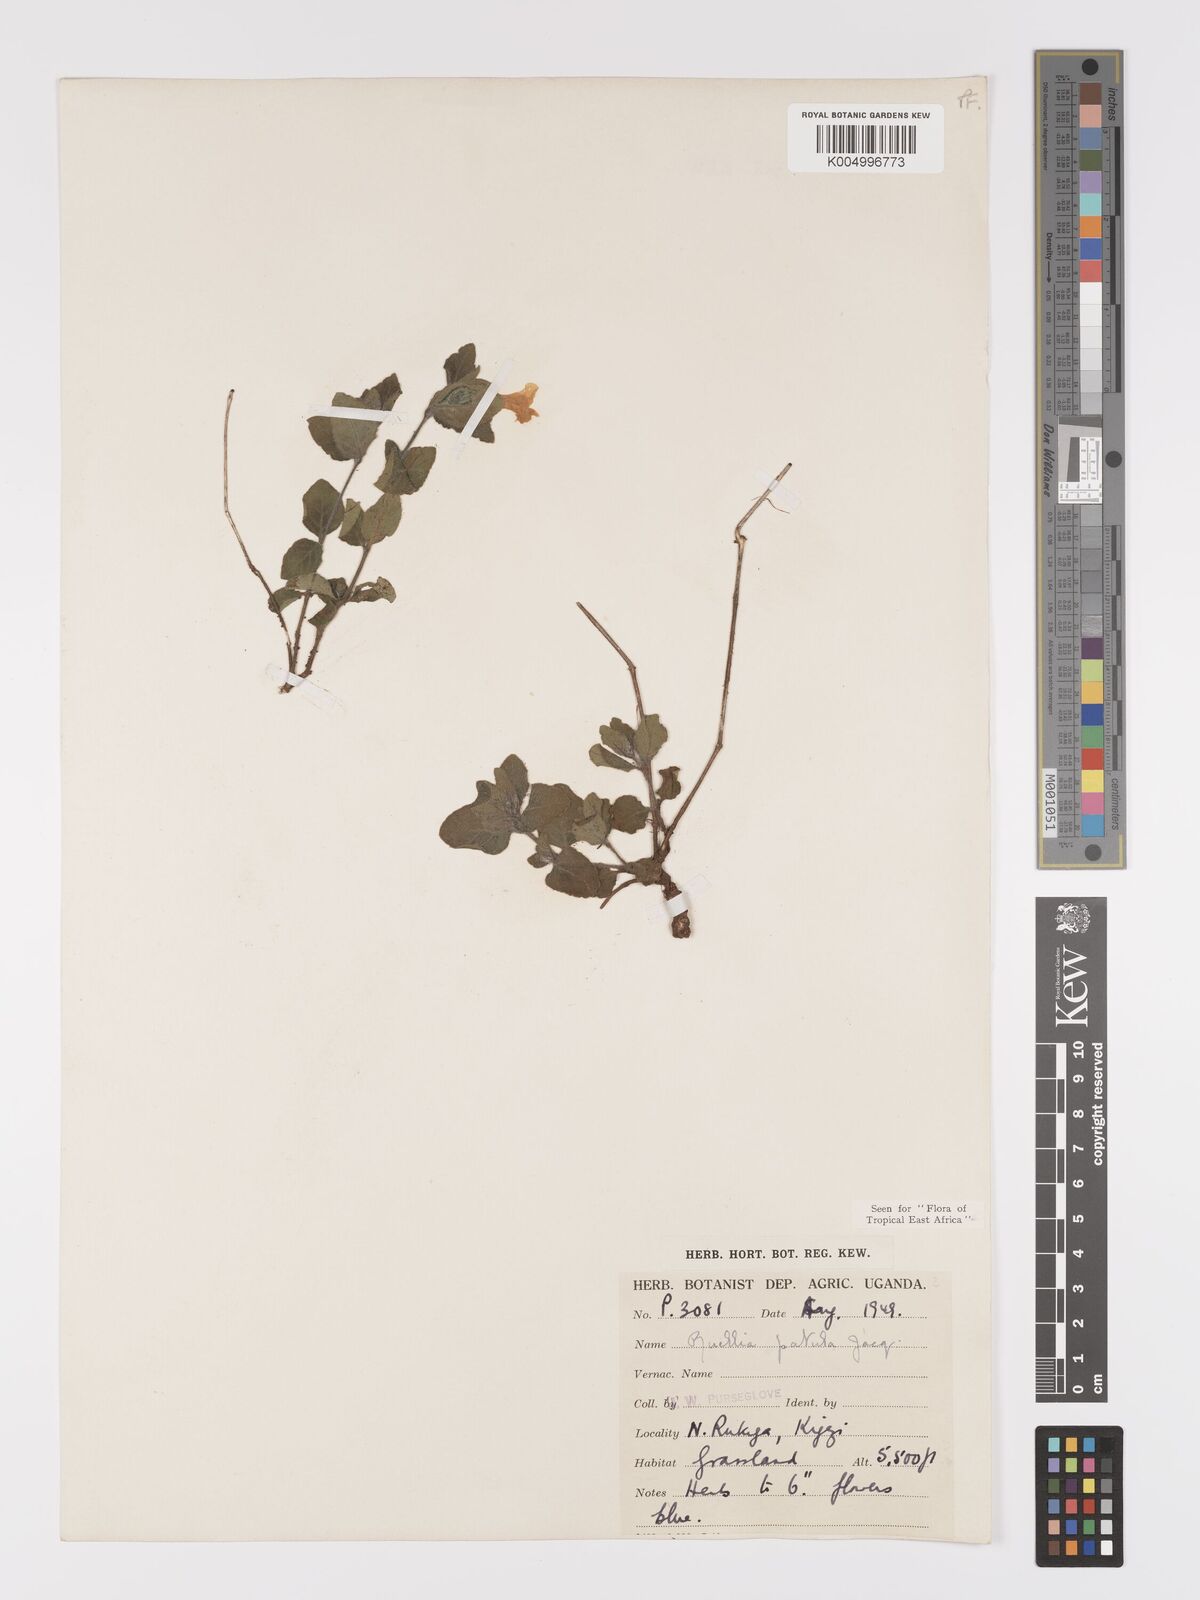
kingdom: Plantae
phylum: Tracheophyta
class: Magnoliopsida
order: Lamiales
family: Acanthaceae
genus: Ruellia
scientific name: Ruellia patula
